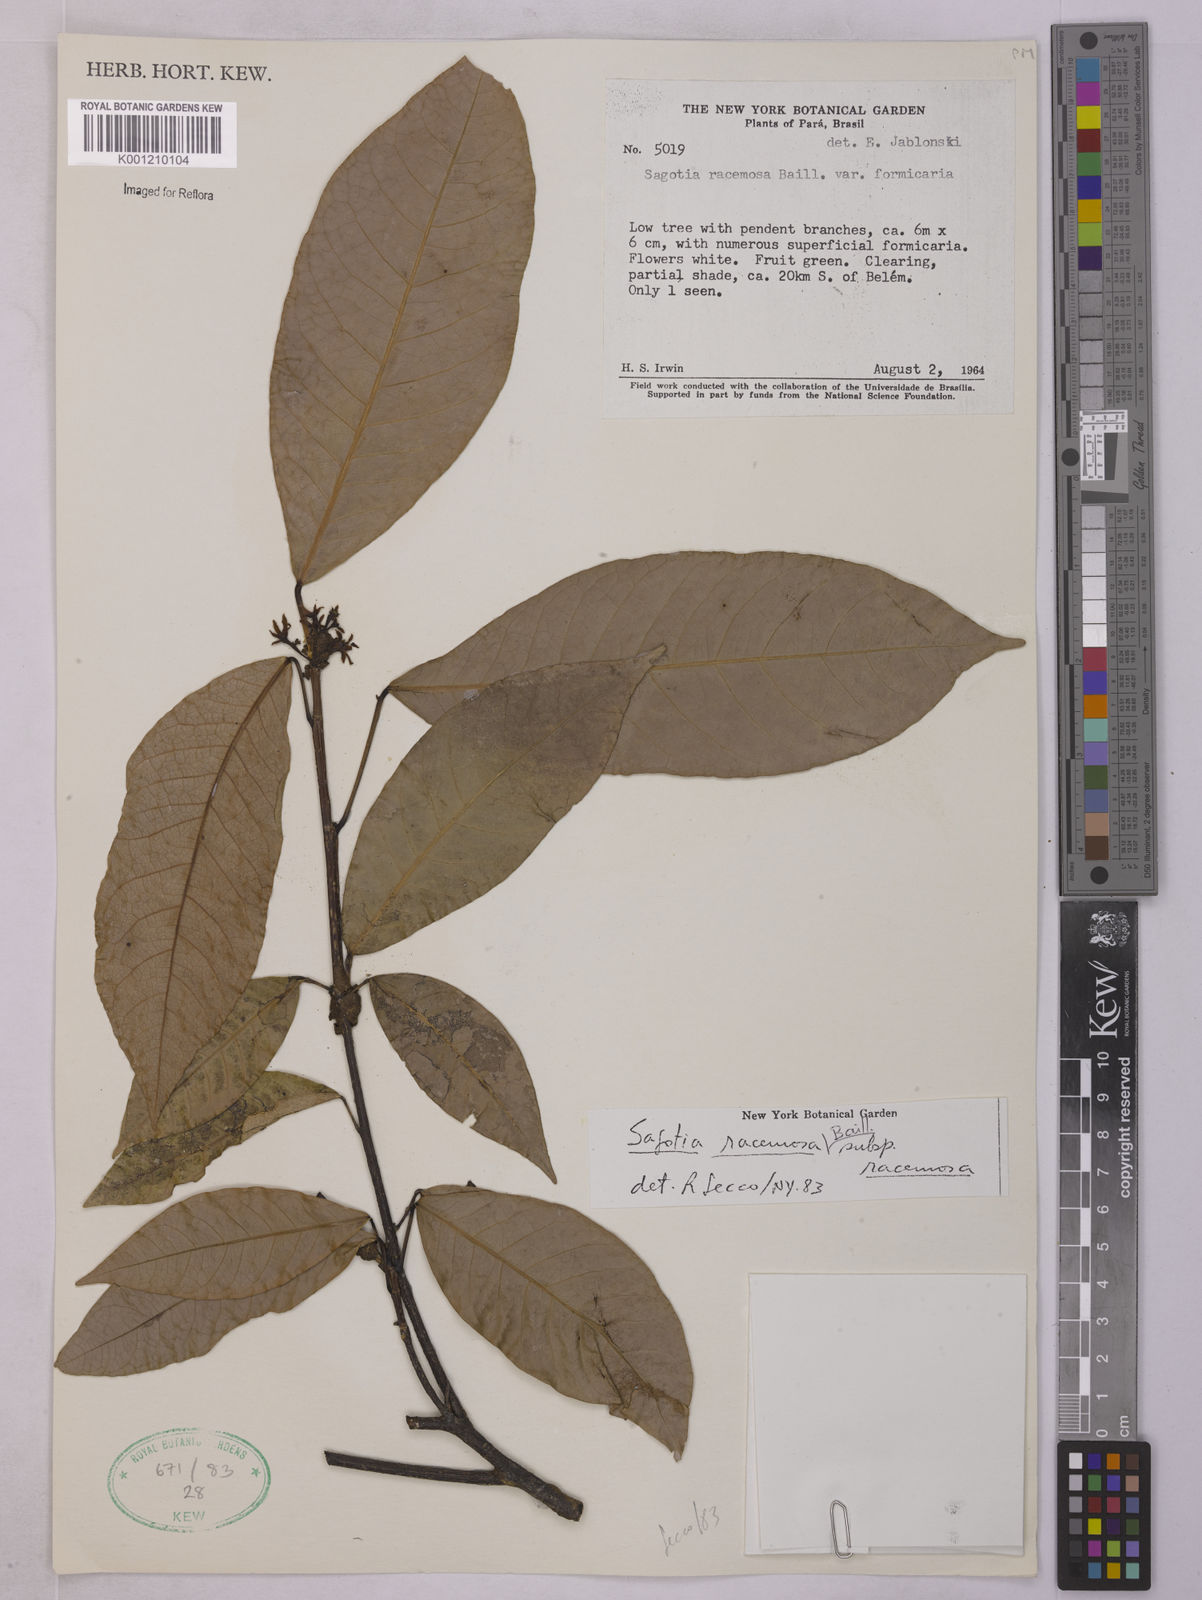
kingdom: Plantae
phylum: Tracheophyta
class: Magnoliopsida
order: Malpighiales
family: Euphorbiaceae
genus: Sagotia
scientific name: Sagotia racemosa
